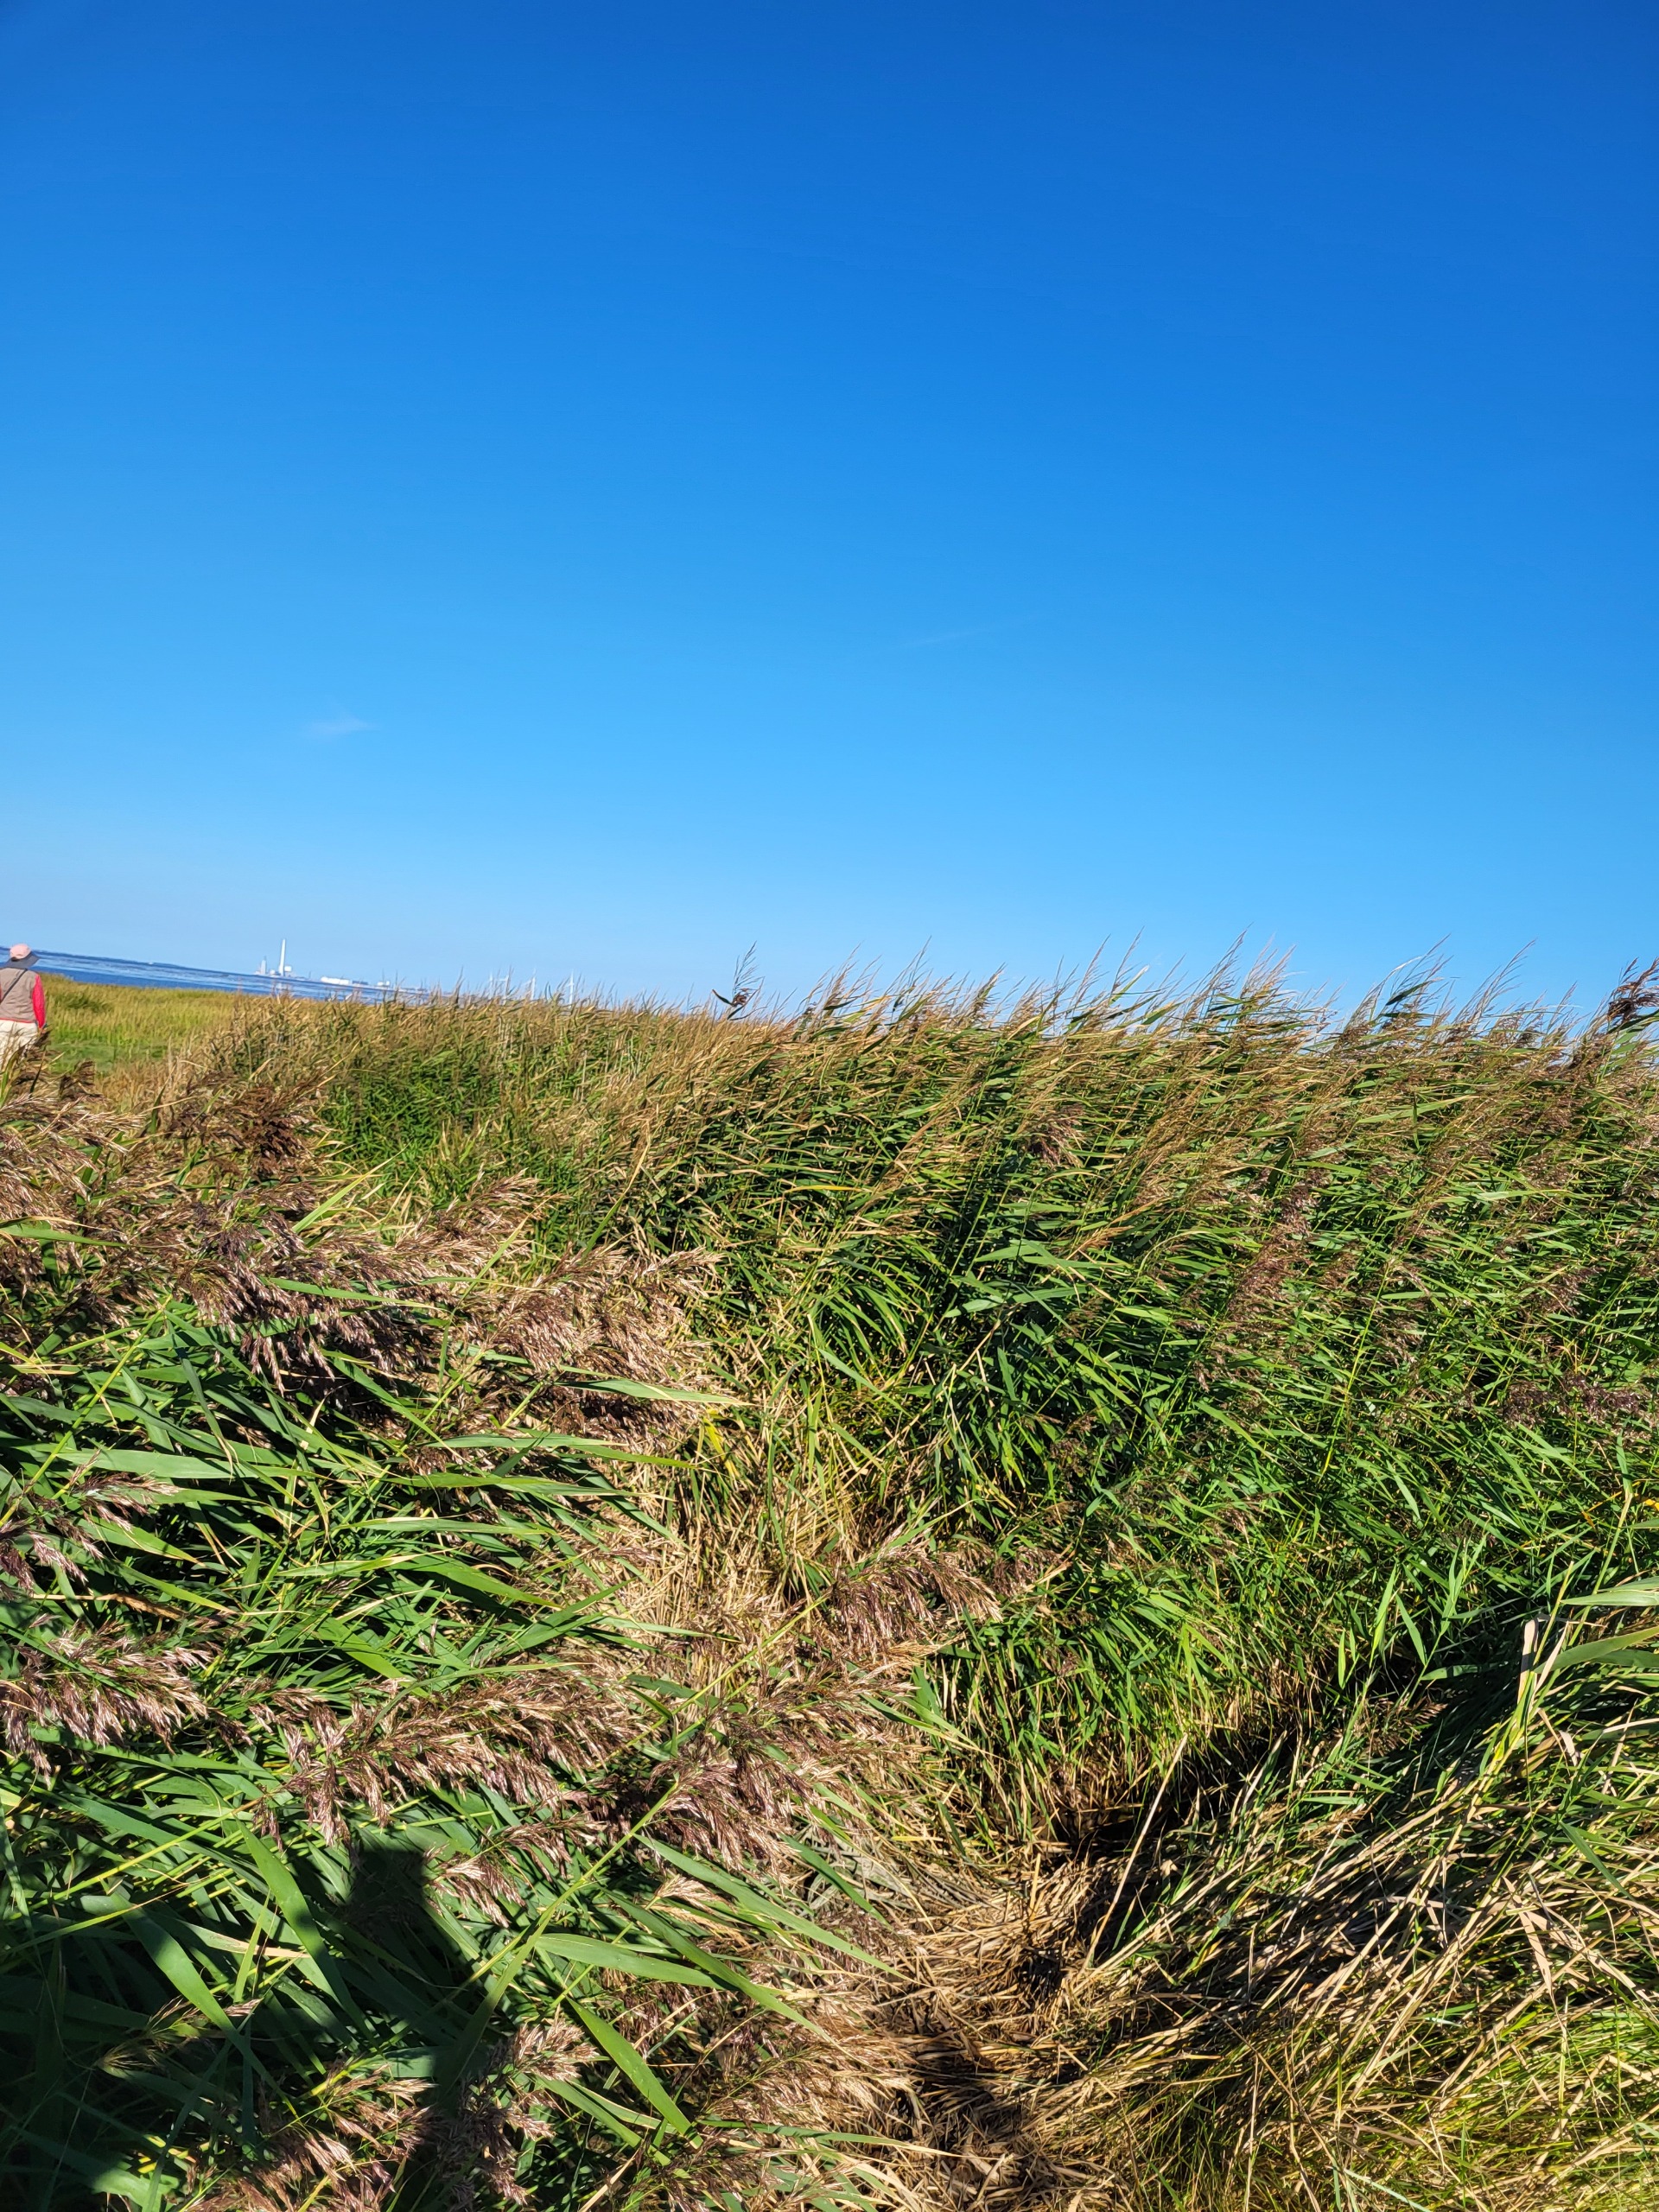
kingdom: Plantae
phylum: Tracheophyta
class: Liliopsida
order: Poales
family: Poaceae
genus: Phragmites
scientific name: Phragmites australis
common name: Tagrør
